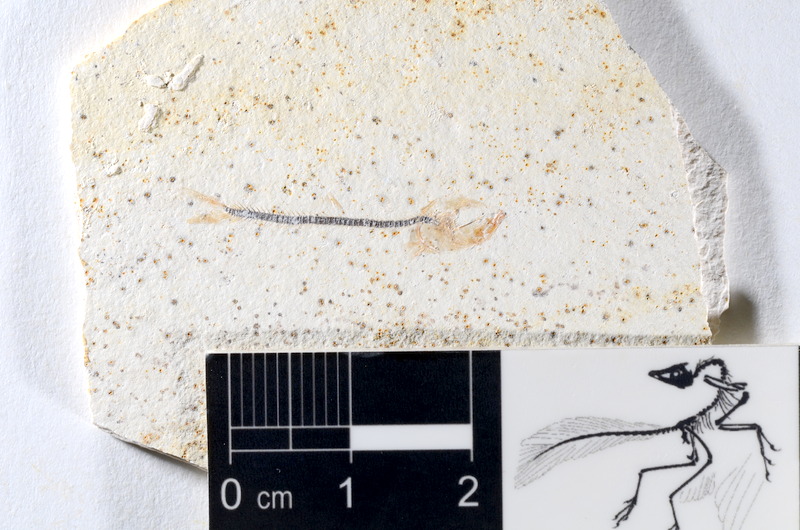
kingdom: Animalia
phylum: Chordata
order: Salmoniformes
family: Orthogonikleithridae
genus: Orthogonikleithrus
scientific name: Orthogonikleithrus hoelli
